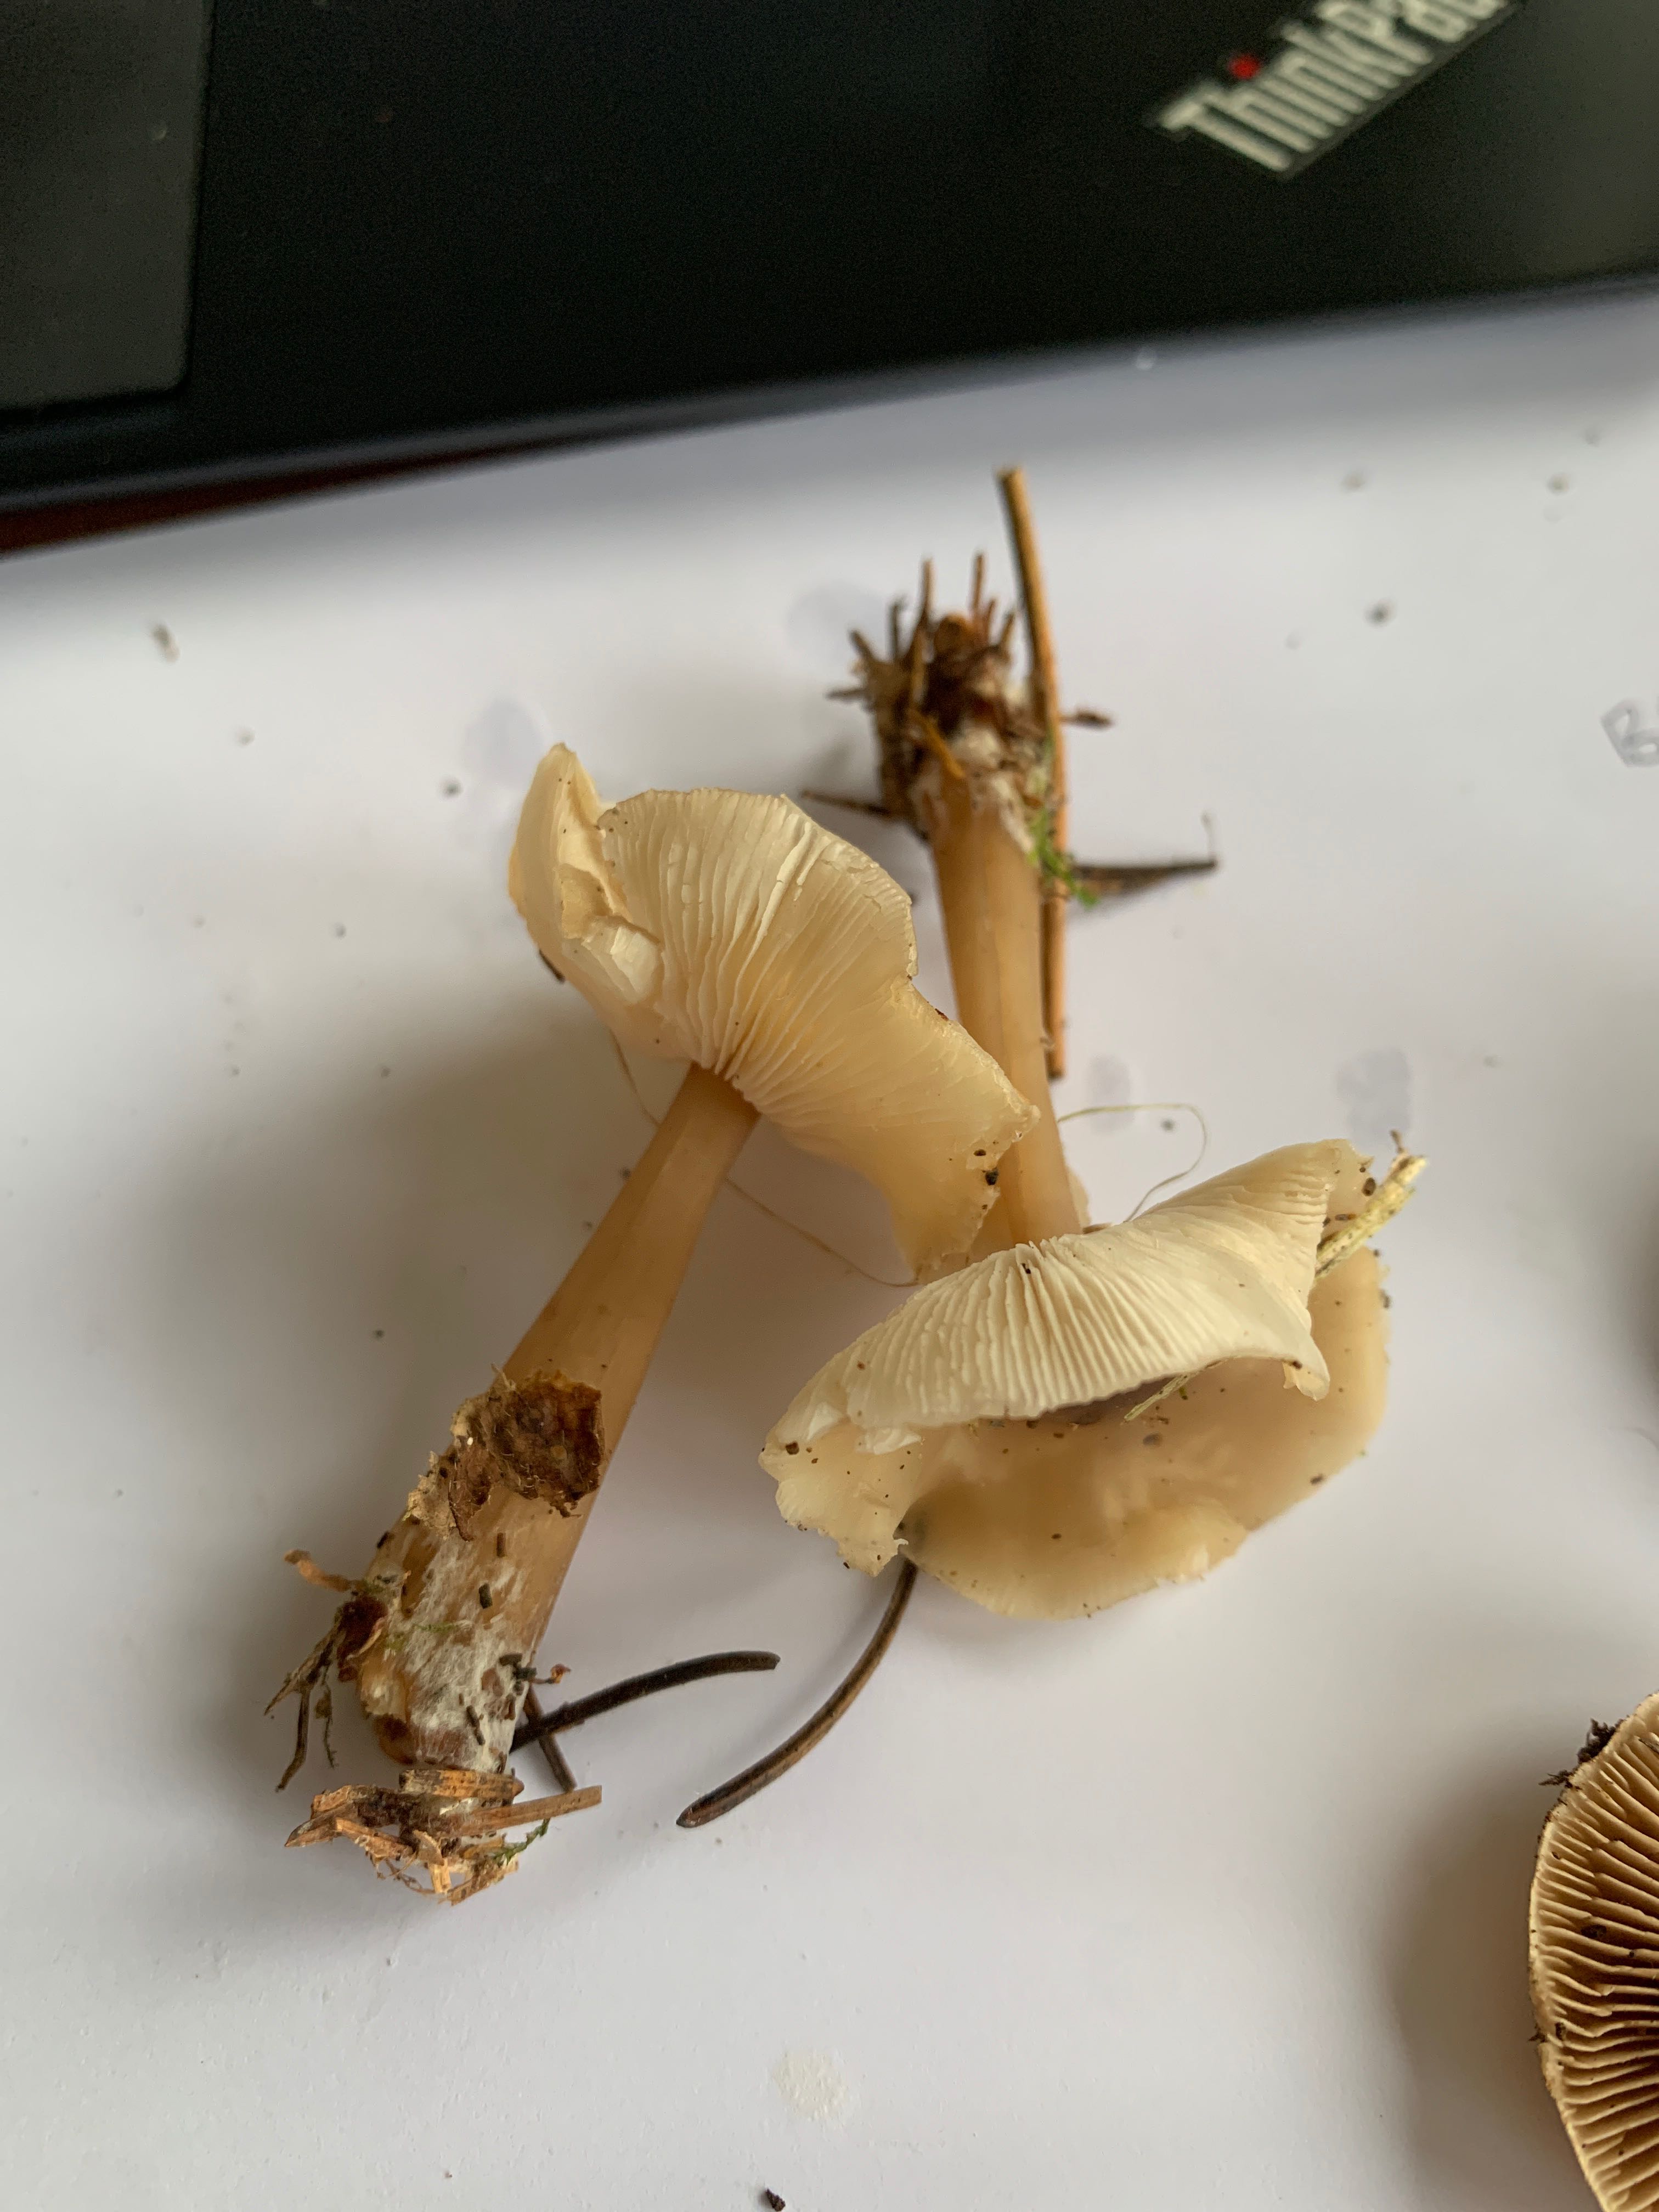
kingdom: Fungi
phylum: Basidiomycota
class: Agaricomycetes
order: Agaricales
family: Omphalotaceae
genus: Rhodocollybia
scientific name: Rhodocollybia asema
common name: horngrå fladhat
